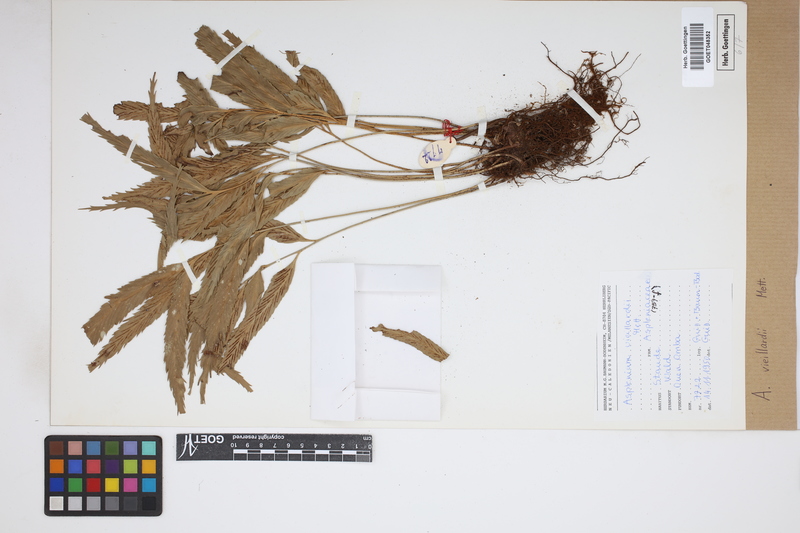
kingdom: Plantae
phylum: Tracheophyta
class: Polypodiopsida
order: Polypodiales
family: Aspleniaceae
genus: Asplenium
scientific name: Asplenium vieillardii
